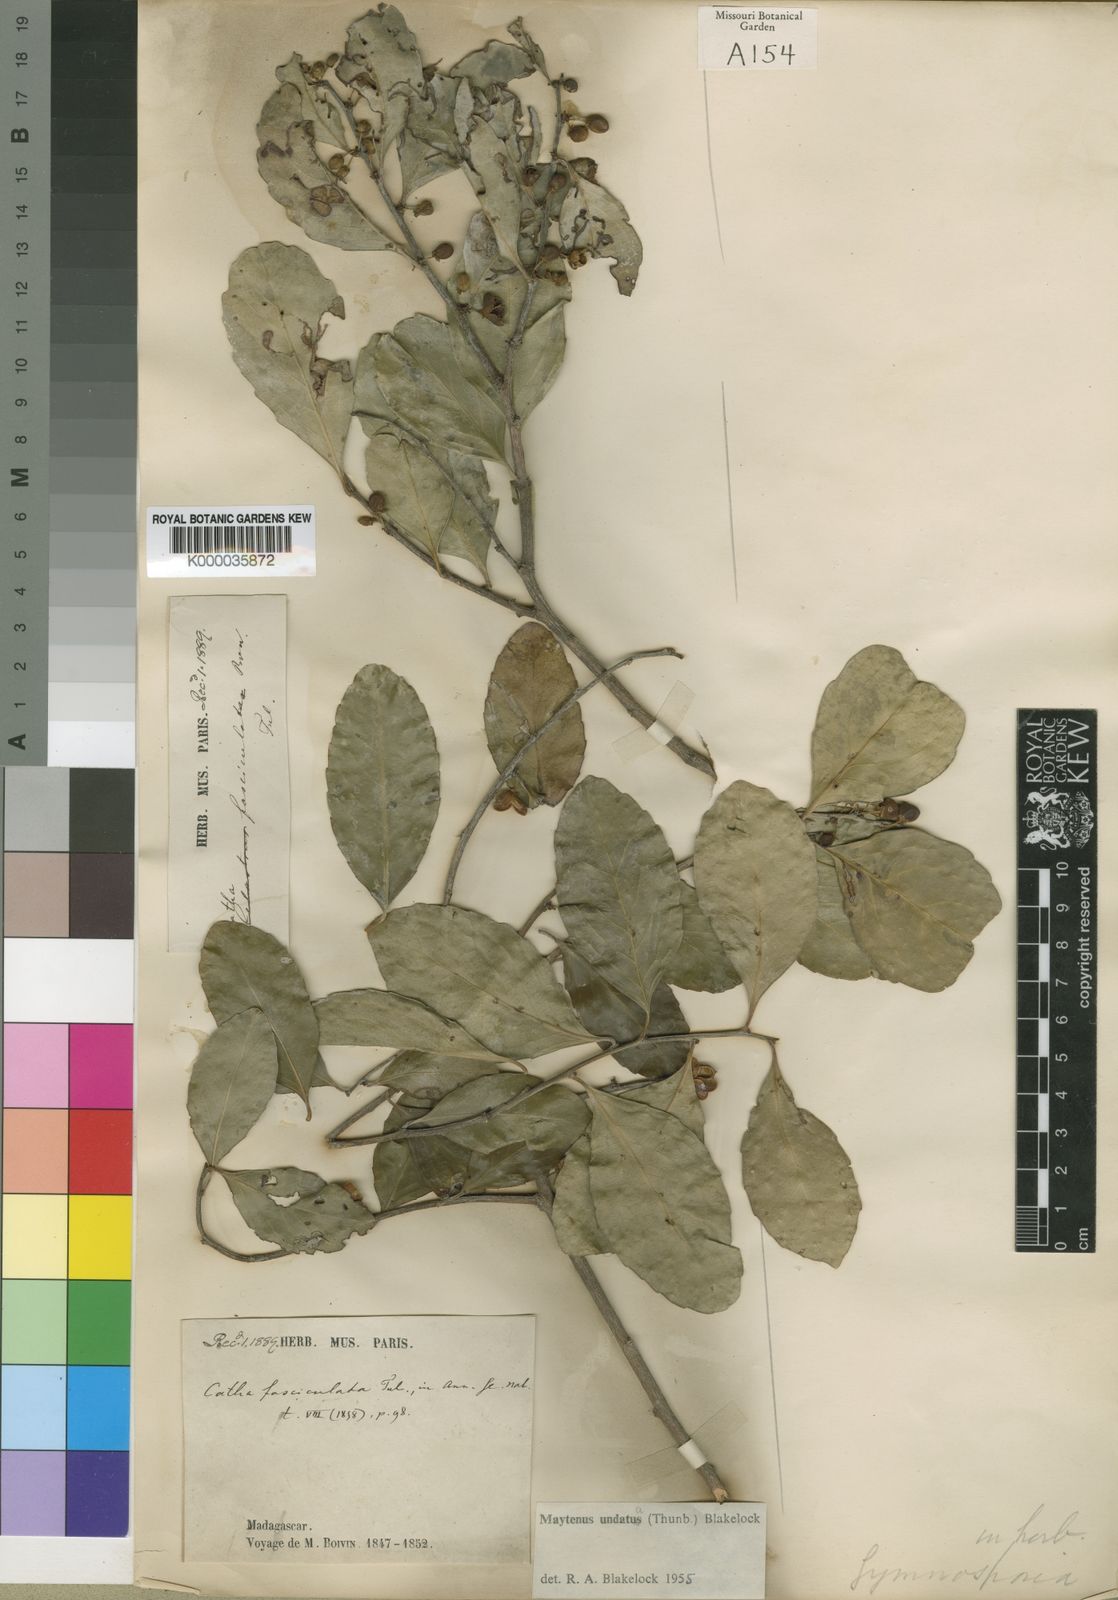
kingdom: Plantae
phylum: Tracheophyta
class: Magnoliopsida
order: Celastrales
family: Celastraceae
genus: Gymnosporia
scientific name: Gymnosporia undata
